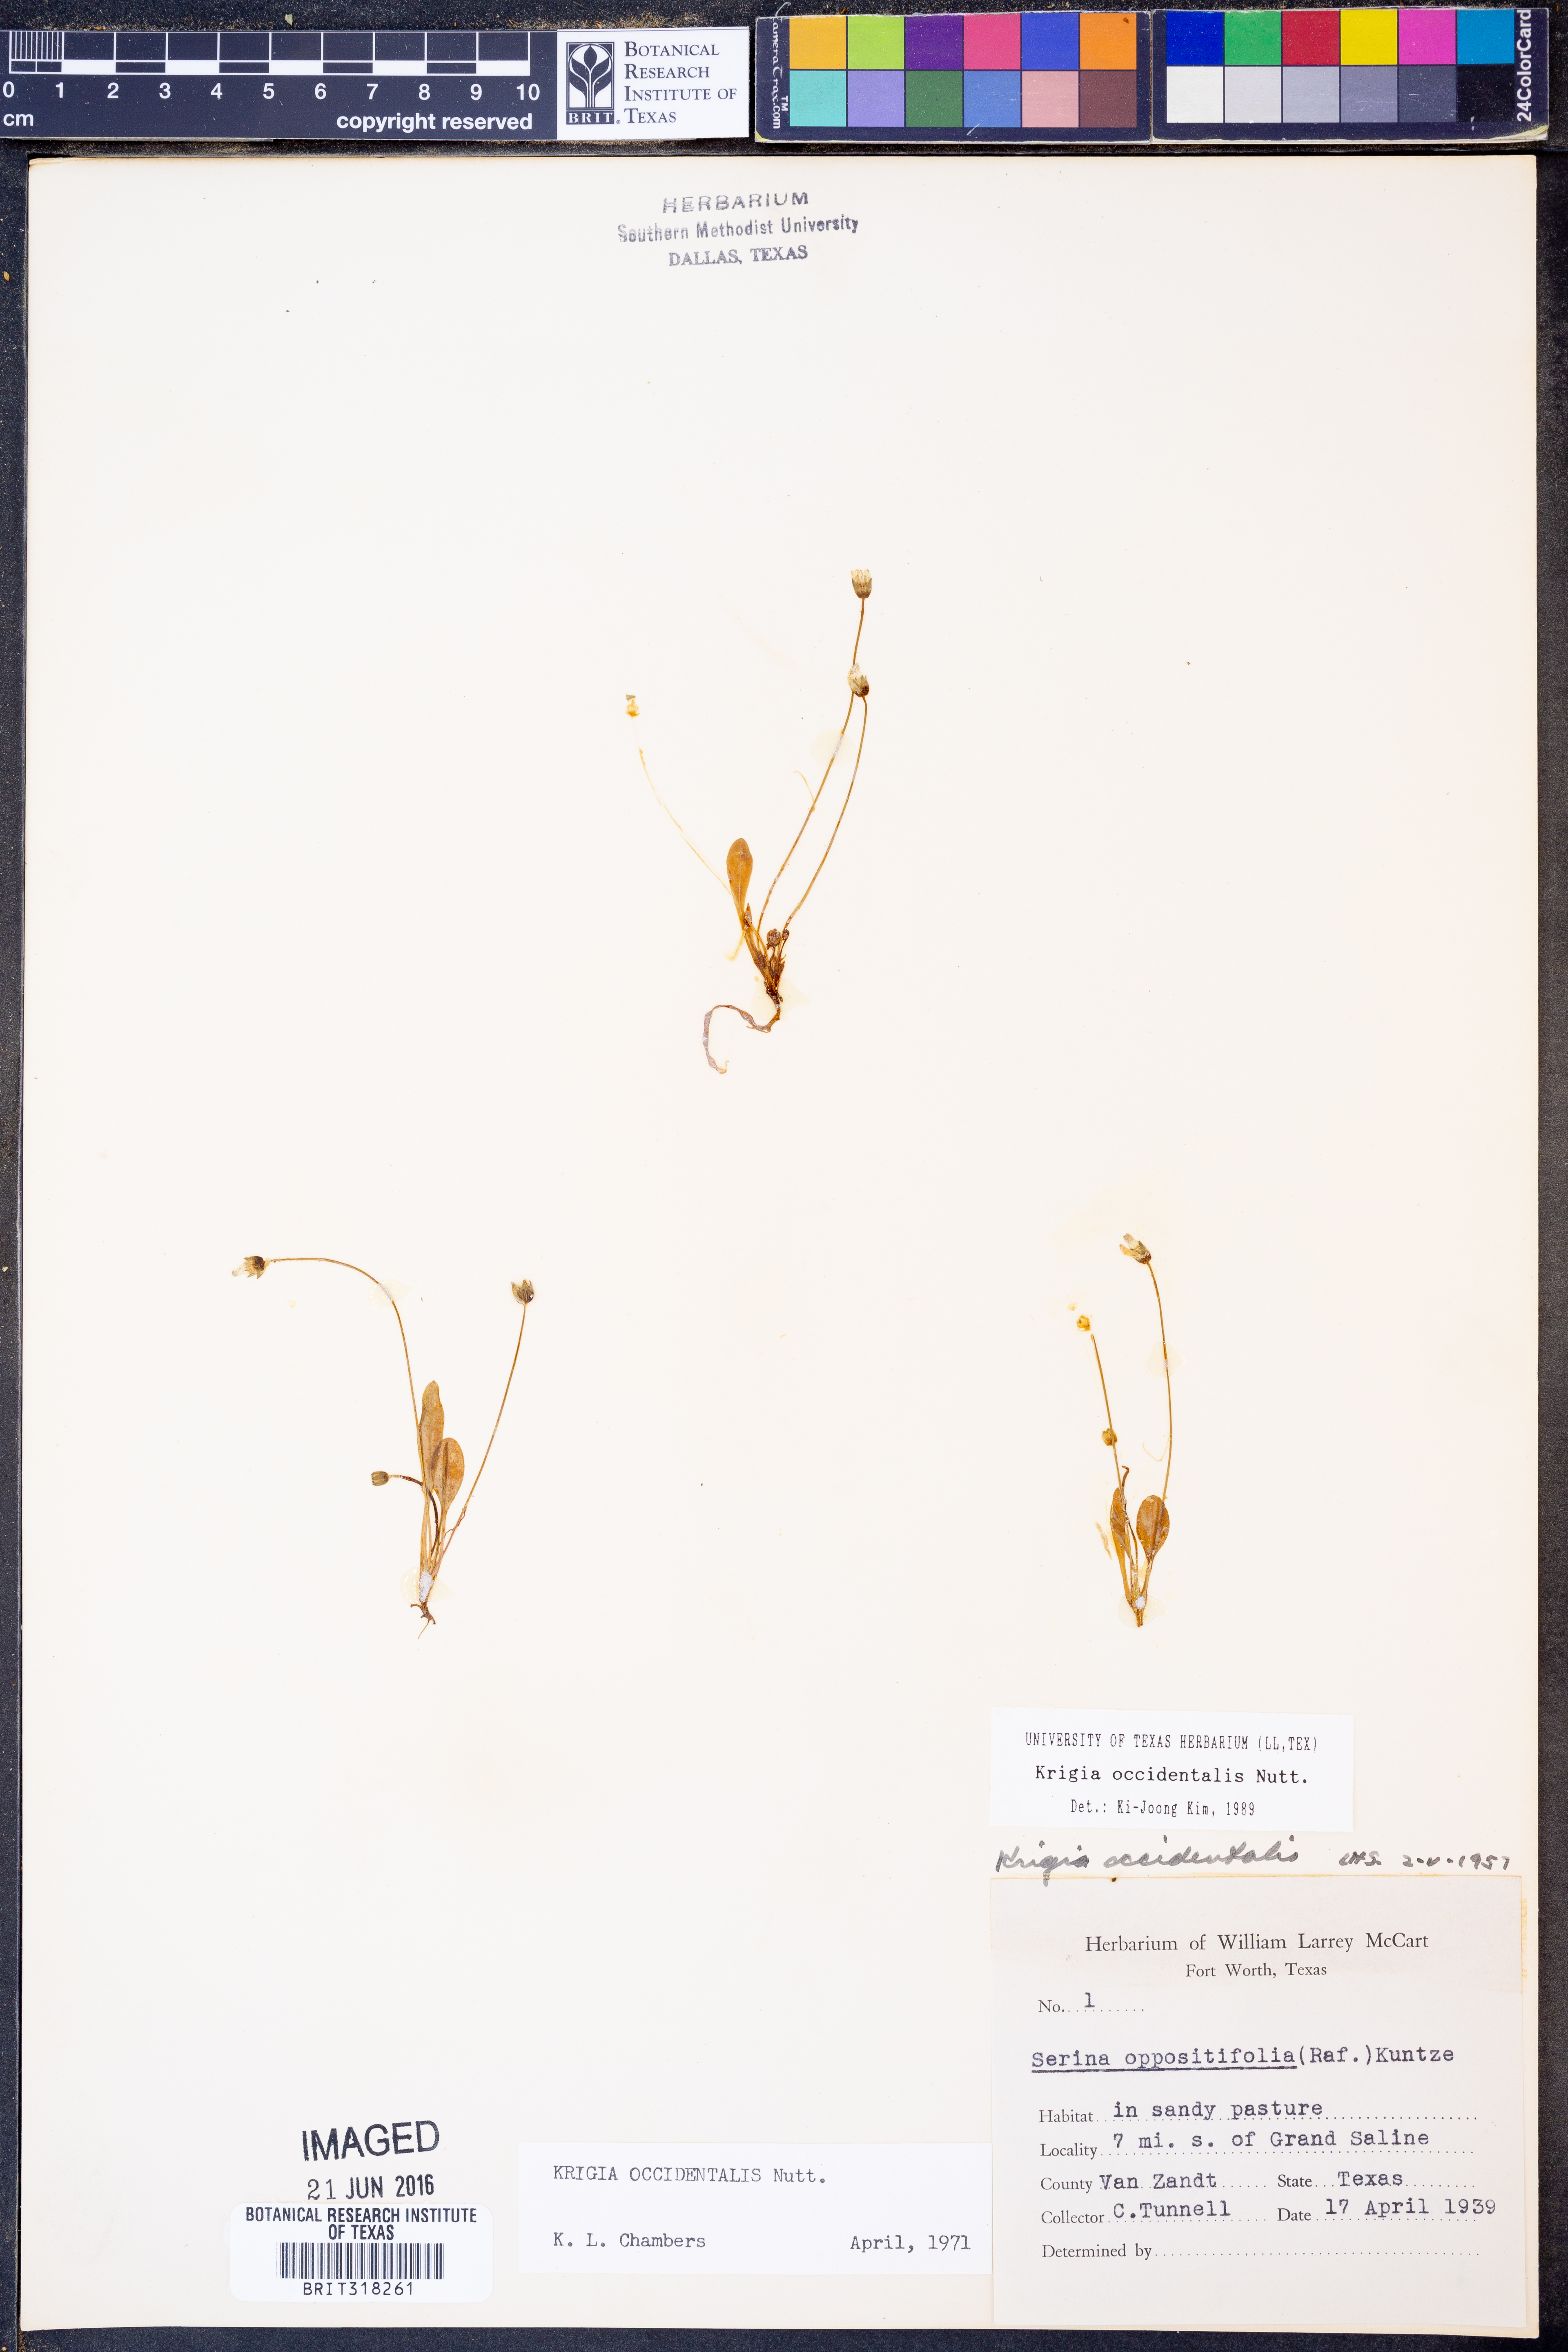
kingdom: Plantae
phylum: Tracheophyta
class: Magnoliopsida
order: Asterales
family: Asteraceae
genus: Krigia
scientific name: Krigia occidentalis
